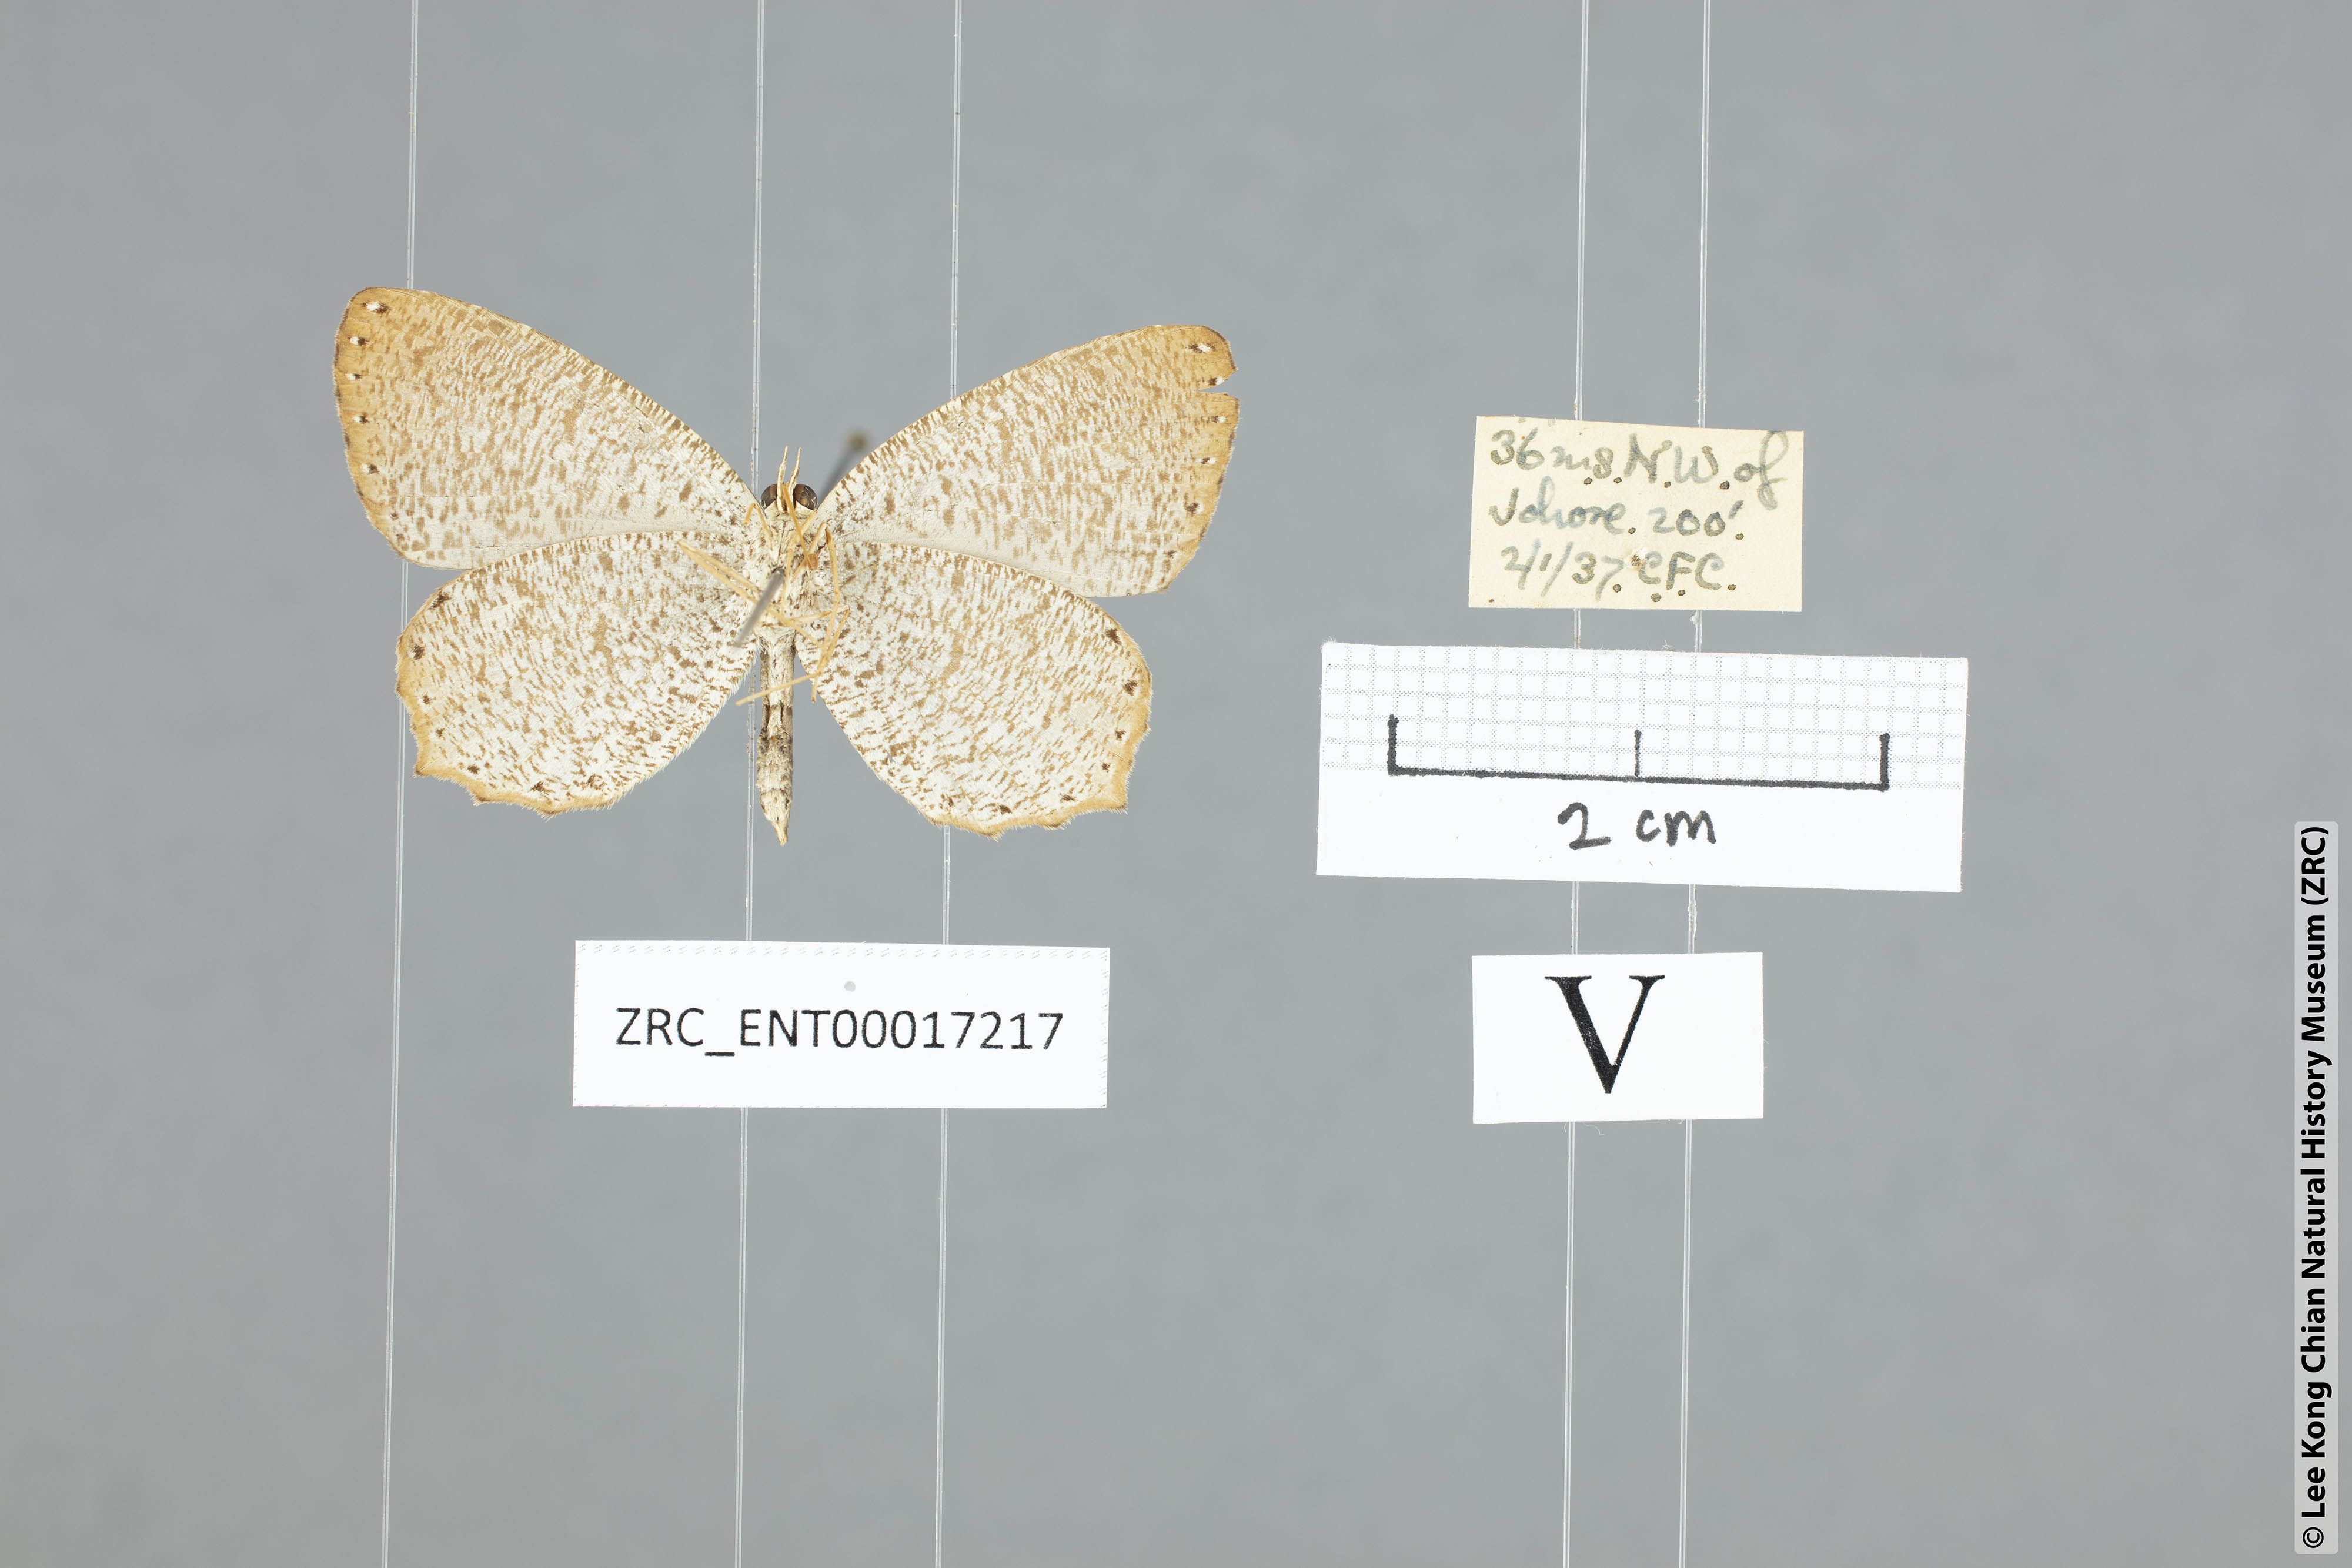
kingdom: Animalia
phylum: Arthropoda
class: Insecta
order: Lepidoptera
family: Lycaenidae
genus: Allotinus
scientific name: Allotinus borneensis
